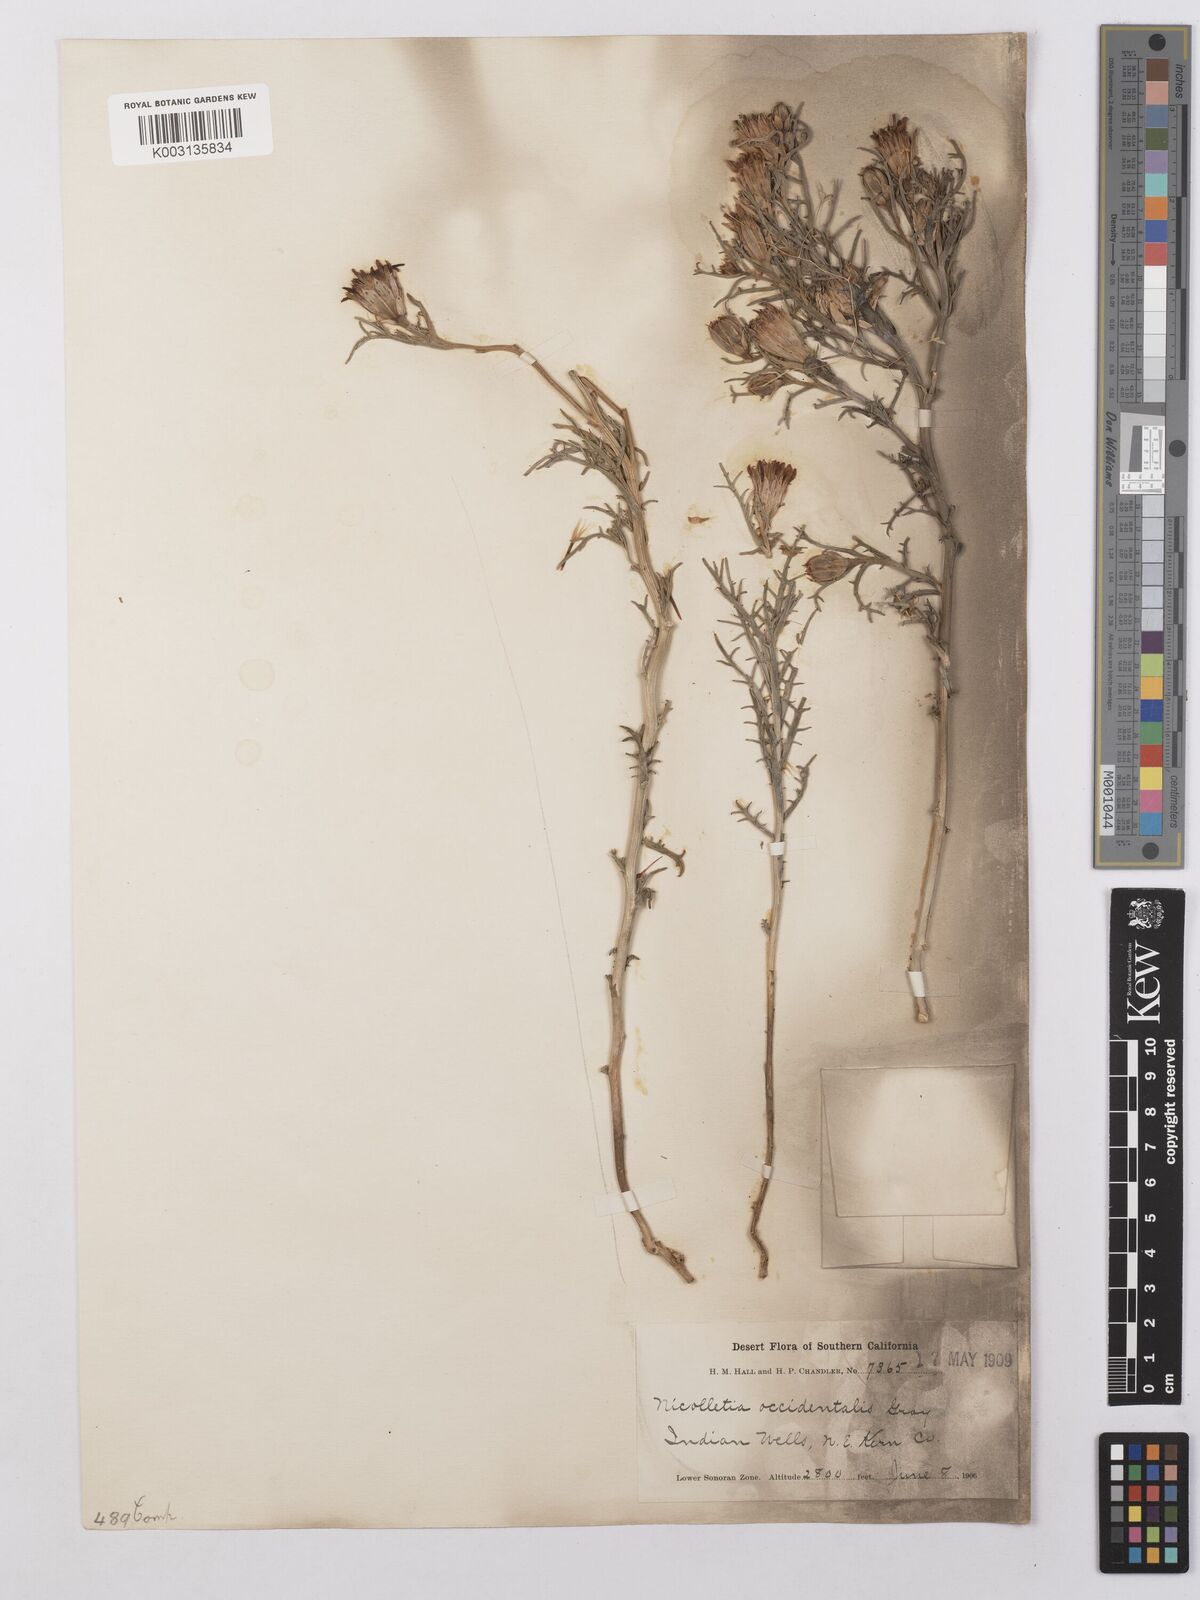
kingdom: Plantae
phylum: Tracheophyta
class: Magnoliopsida
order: Asterales
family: Asteraceae
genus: Nicolletia
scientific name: Nicolletia occidentalis
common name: Hole-in-the-sand-plant
